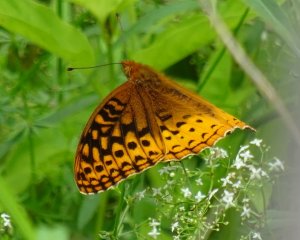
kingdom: Animalia
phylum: Arthropoda
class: Insecta
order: Lepidoptera
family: Nymphalidae
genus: Speyeria
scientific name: Speyeria cybele
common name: Great Spangled Fritillary
